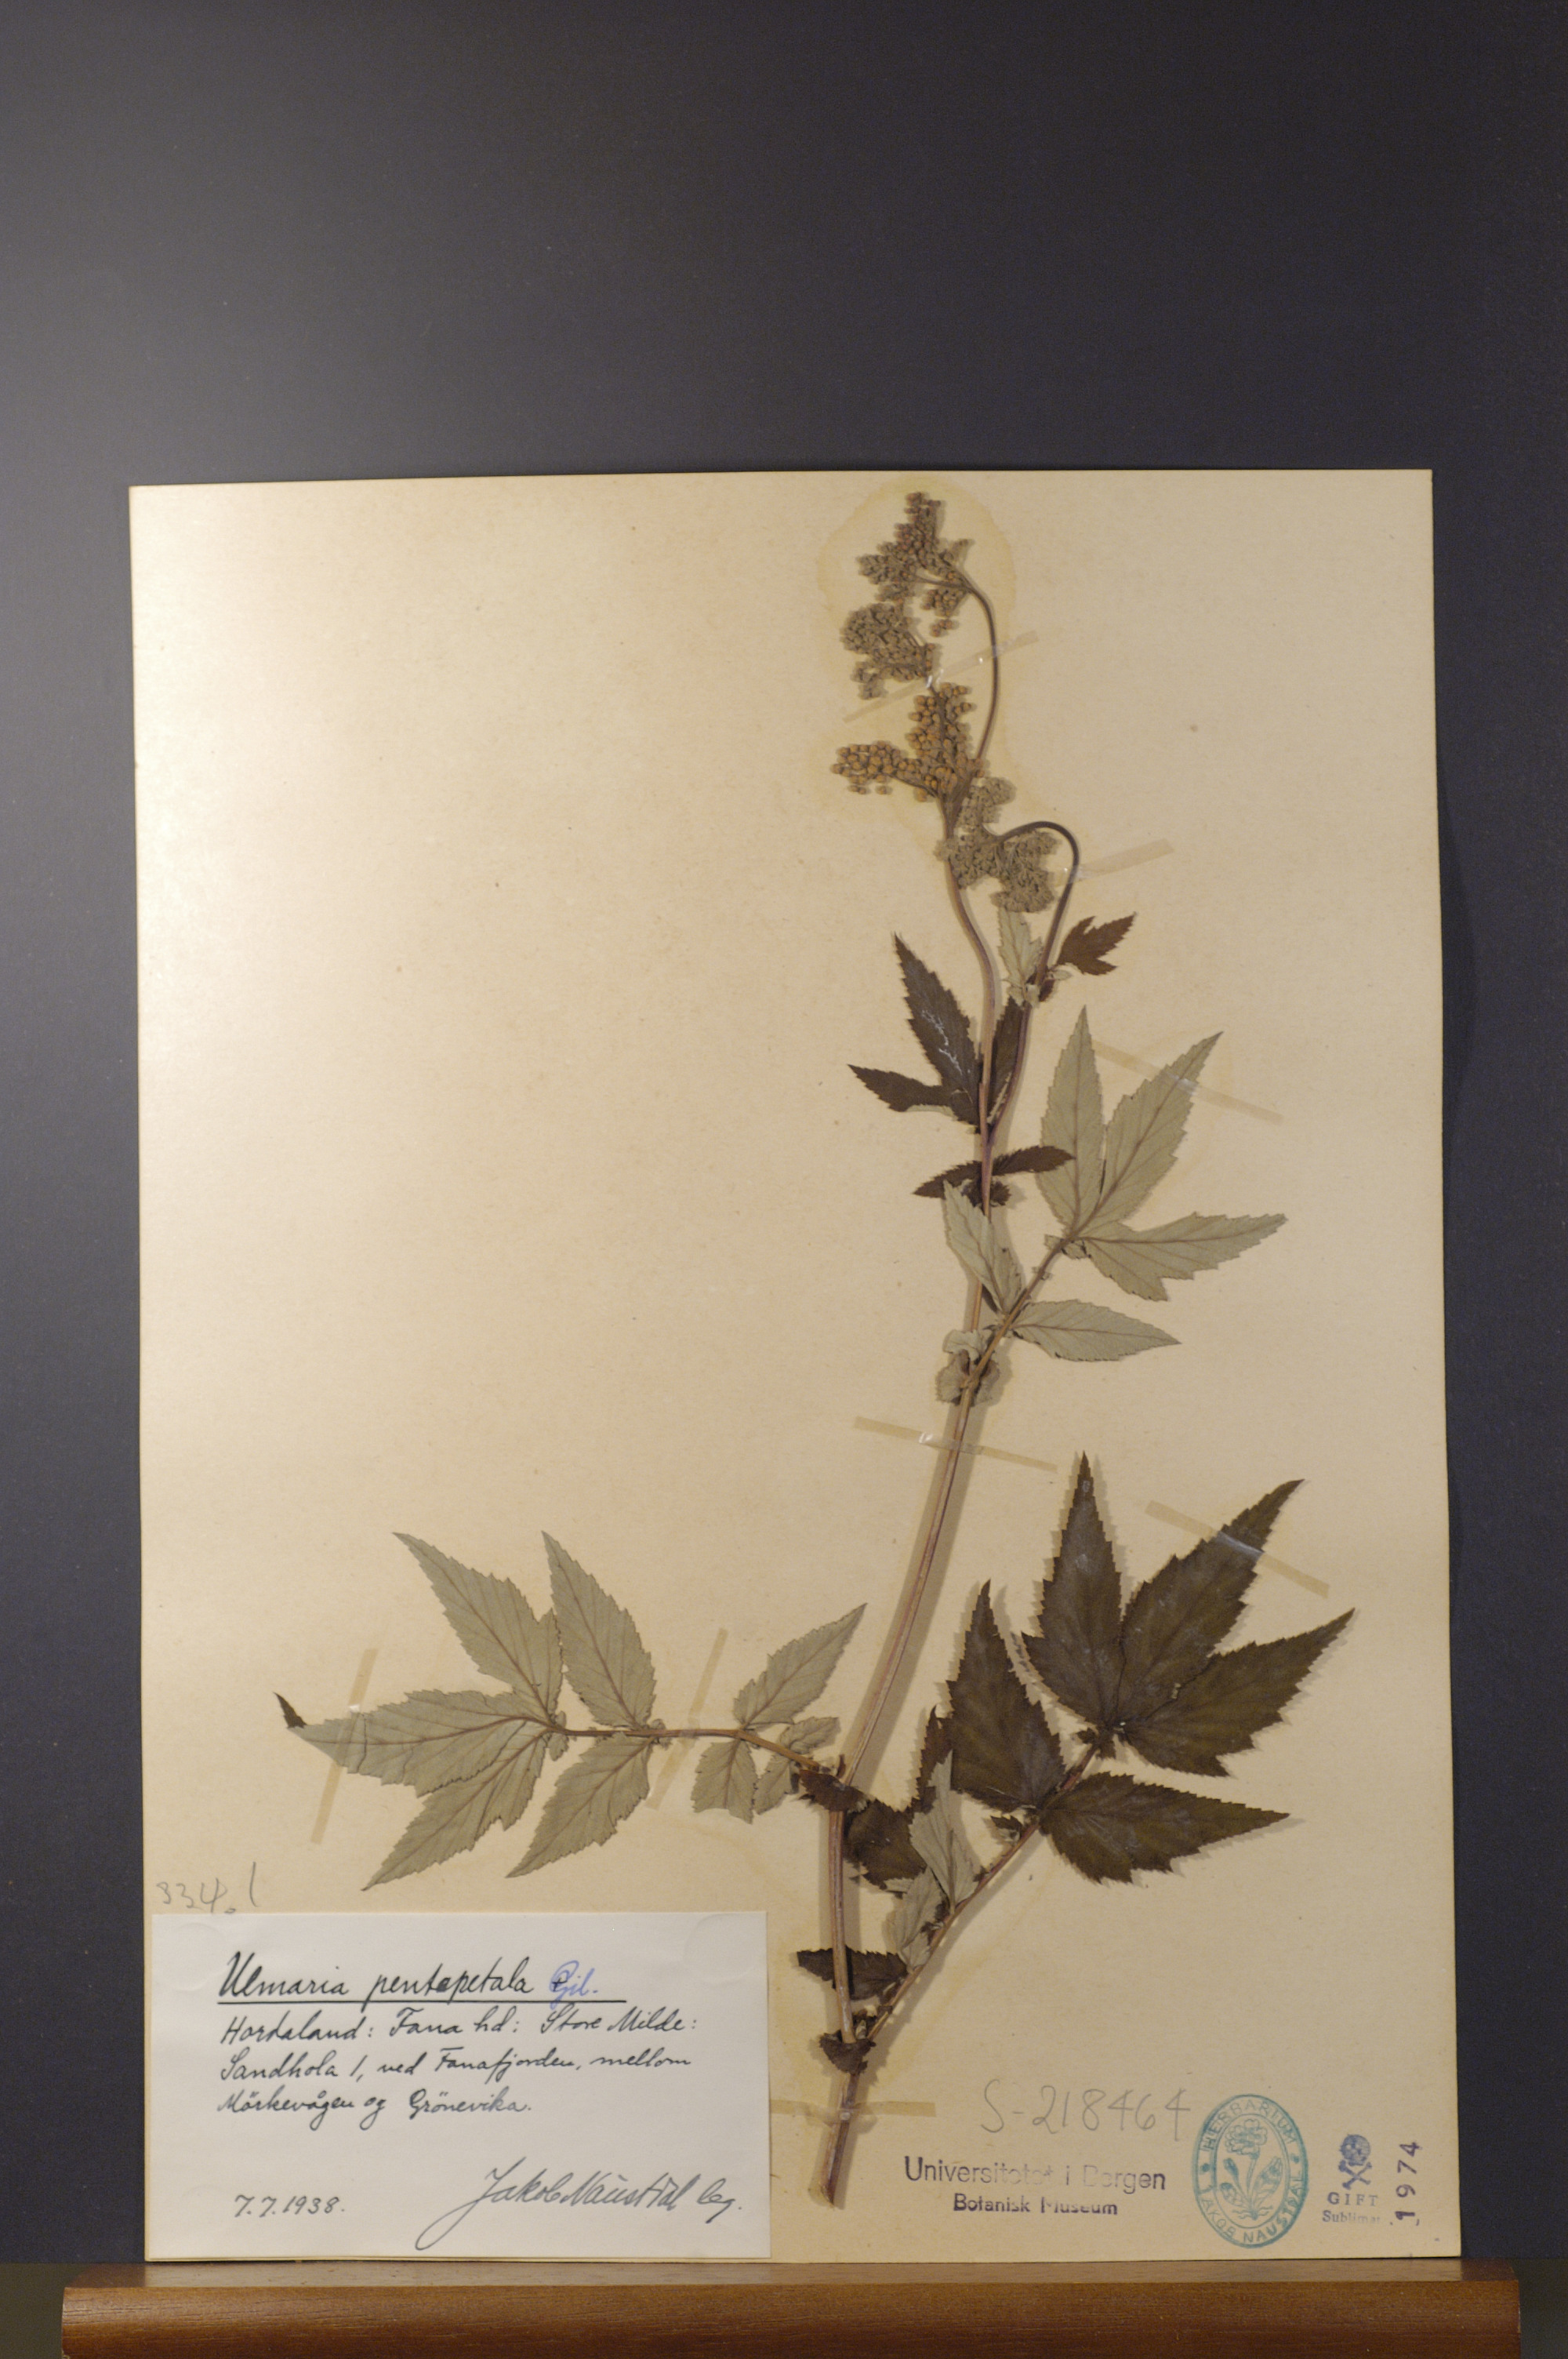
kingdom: Plantae
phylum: Tracheophyta
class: Magnoliopsida
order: Rosales
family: Rosaceae
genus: Filipendula
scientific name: Filipendula ulmaria
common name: Meadowsweet
